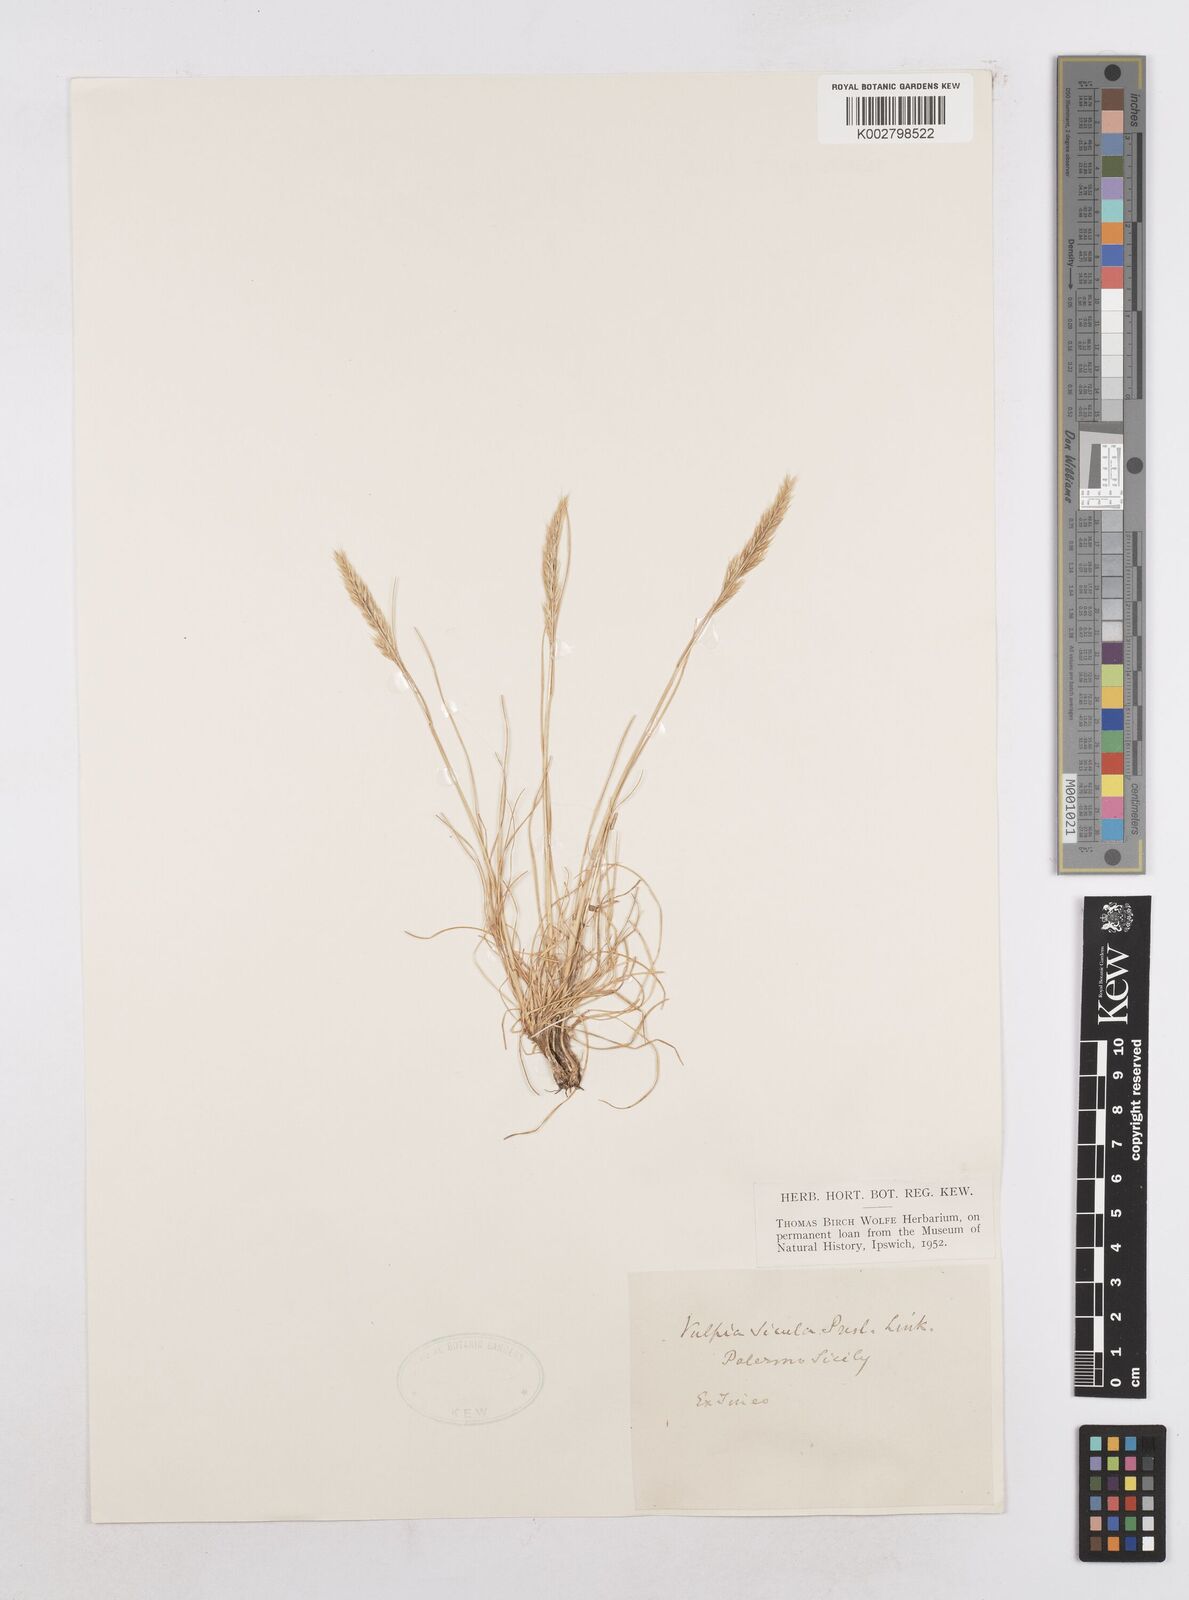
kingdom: Plantae
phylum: Tracheophyta
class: Liliopsida
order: Poales
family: Poaceae
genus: Festuca
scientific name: Festuca sicula
